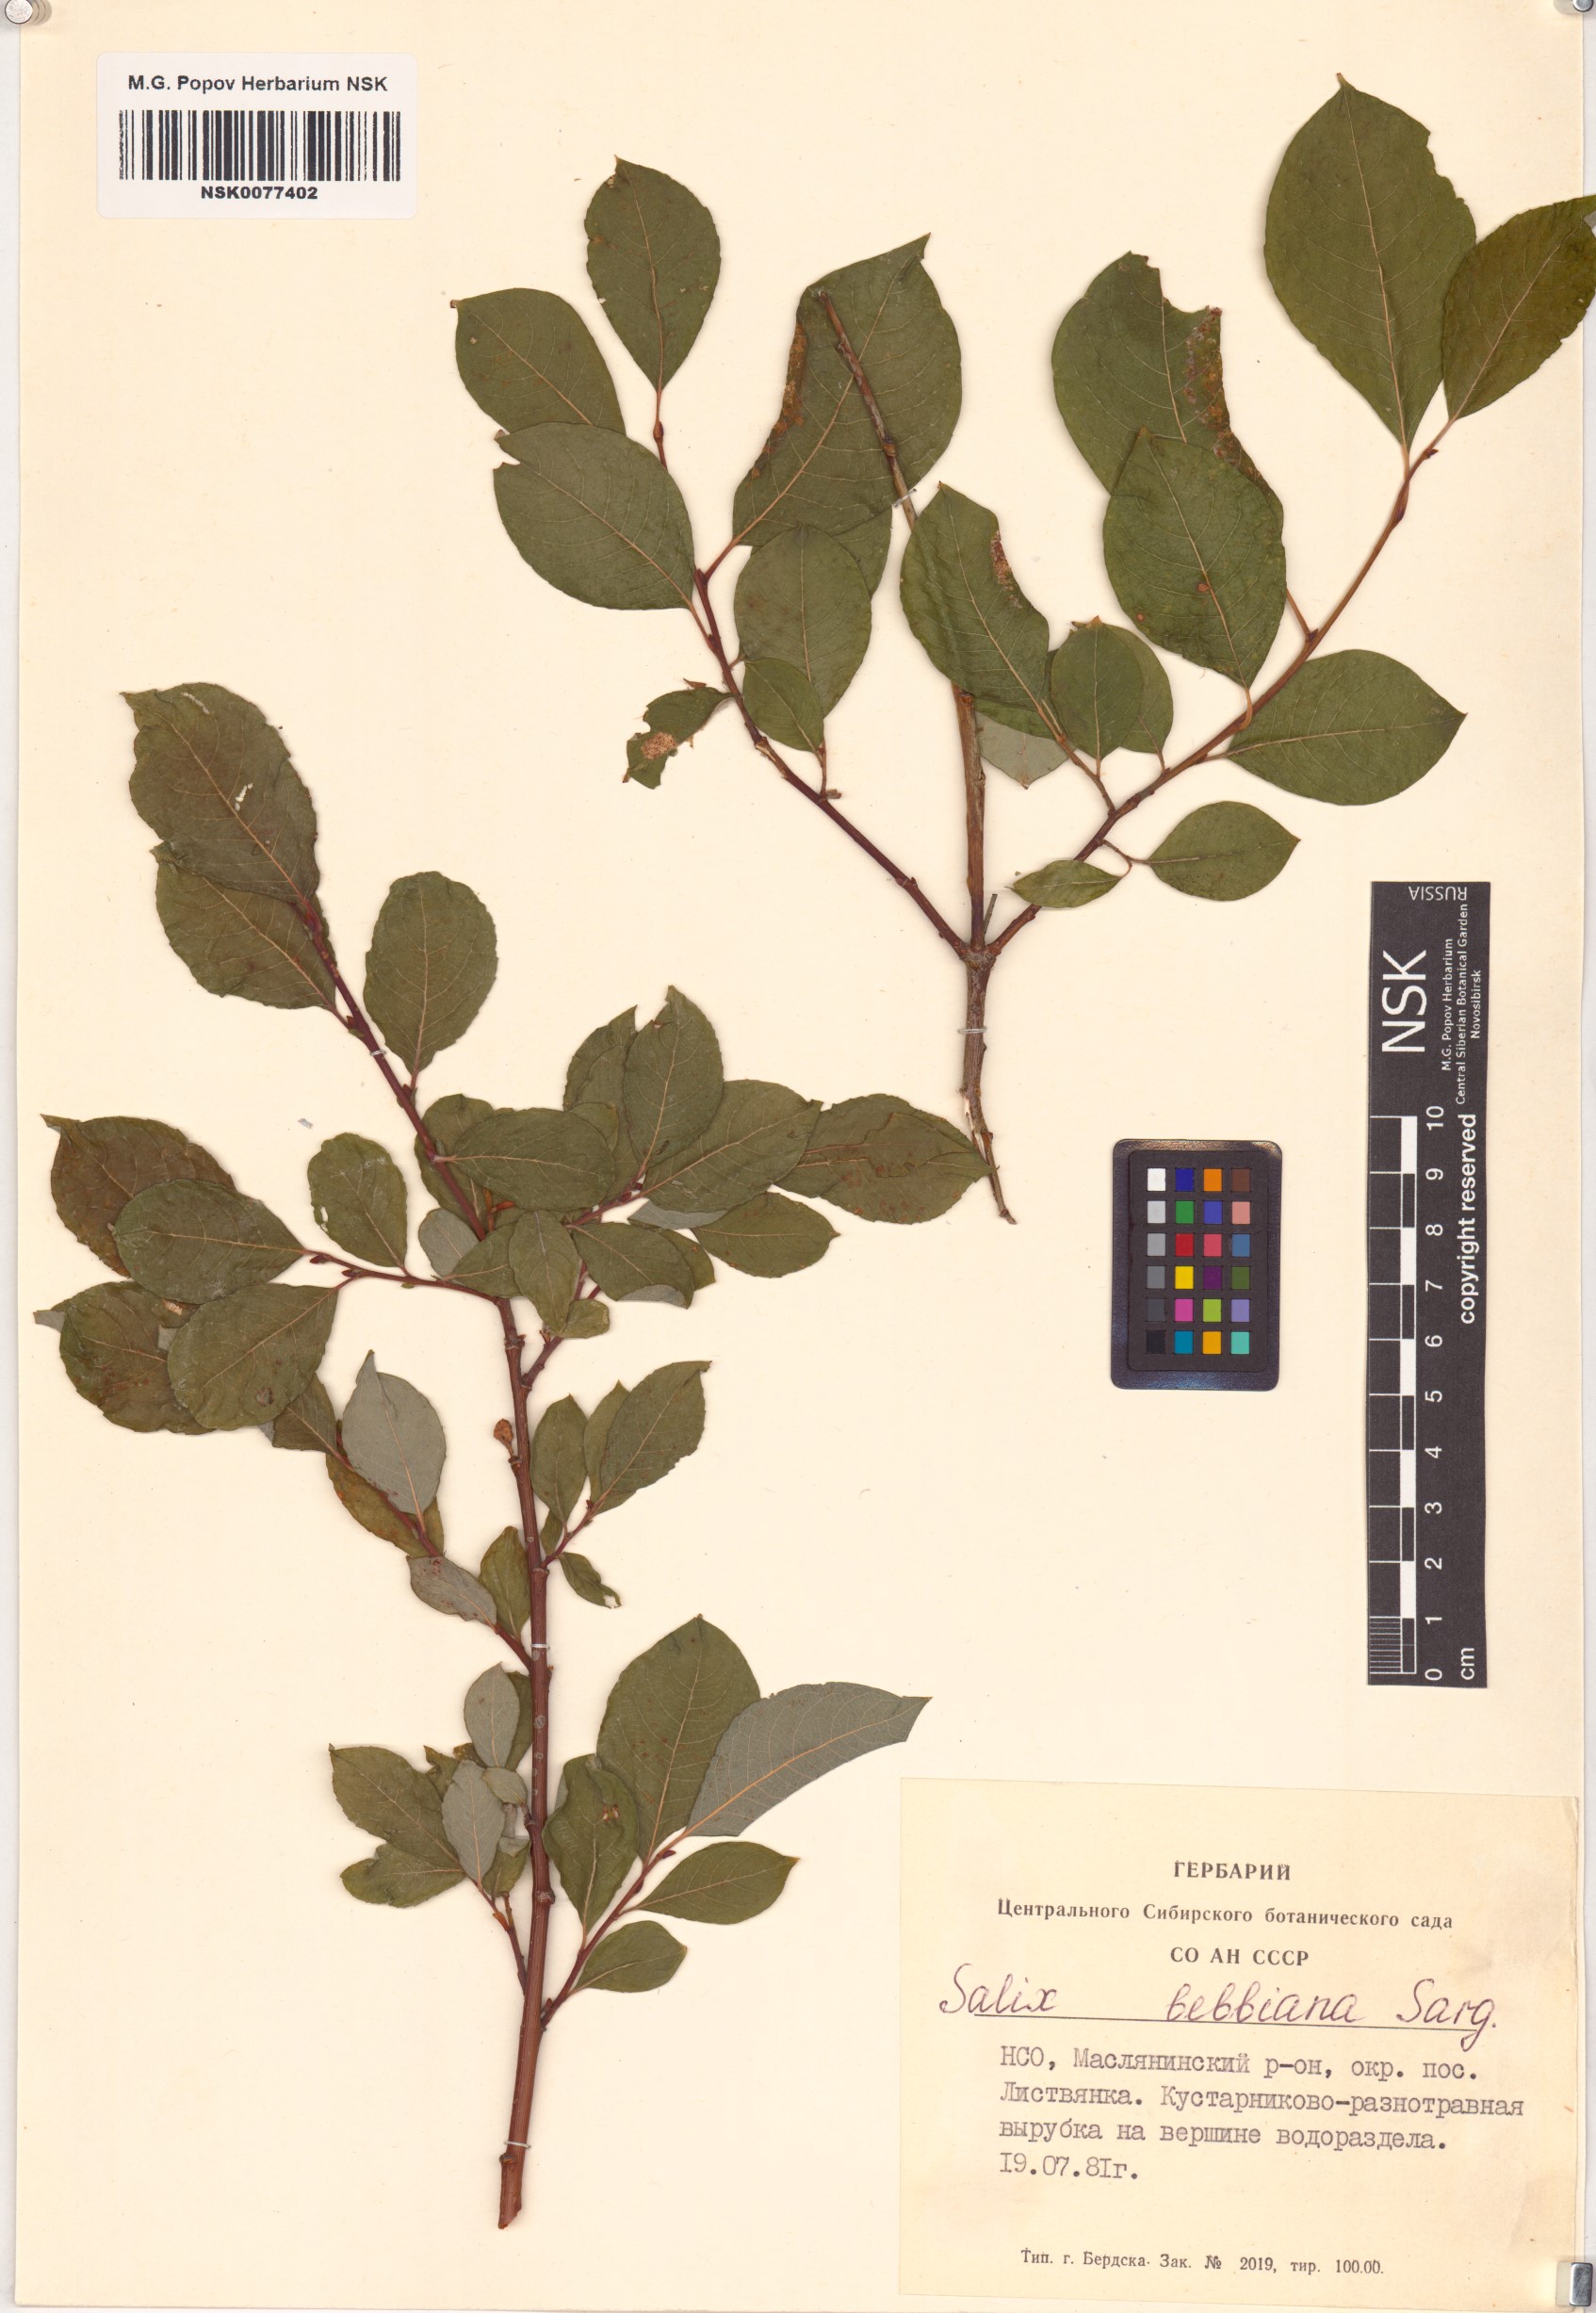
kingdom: Plantae
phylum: Tracheophyta
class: Magnoliopsida
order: Malpighiales
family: Salicaceae
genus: Salix
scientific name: Salix bebbiana
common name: Bebb's willow
